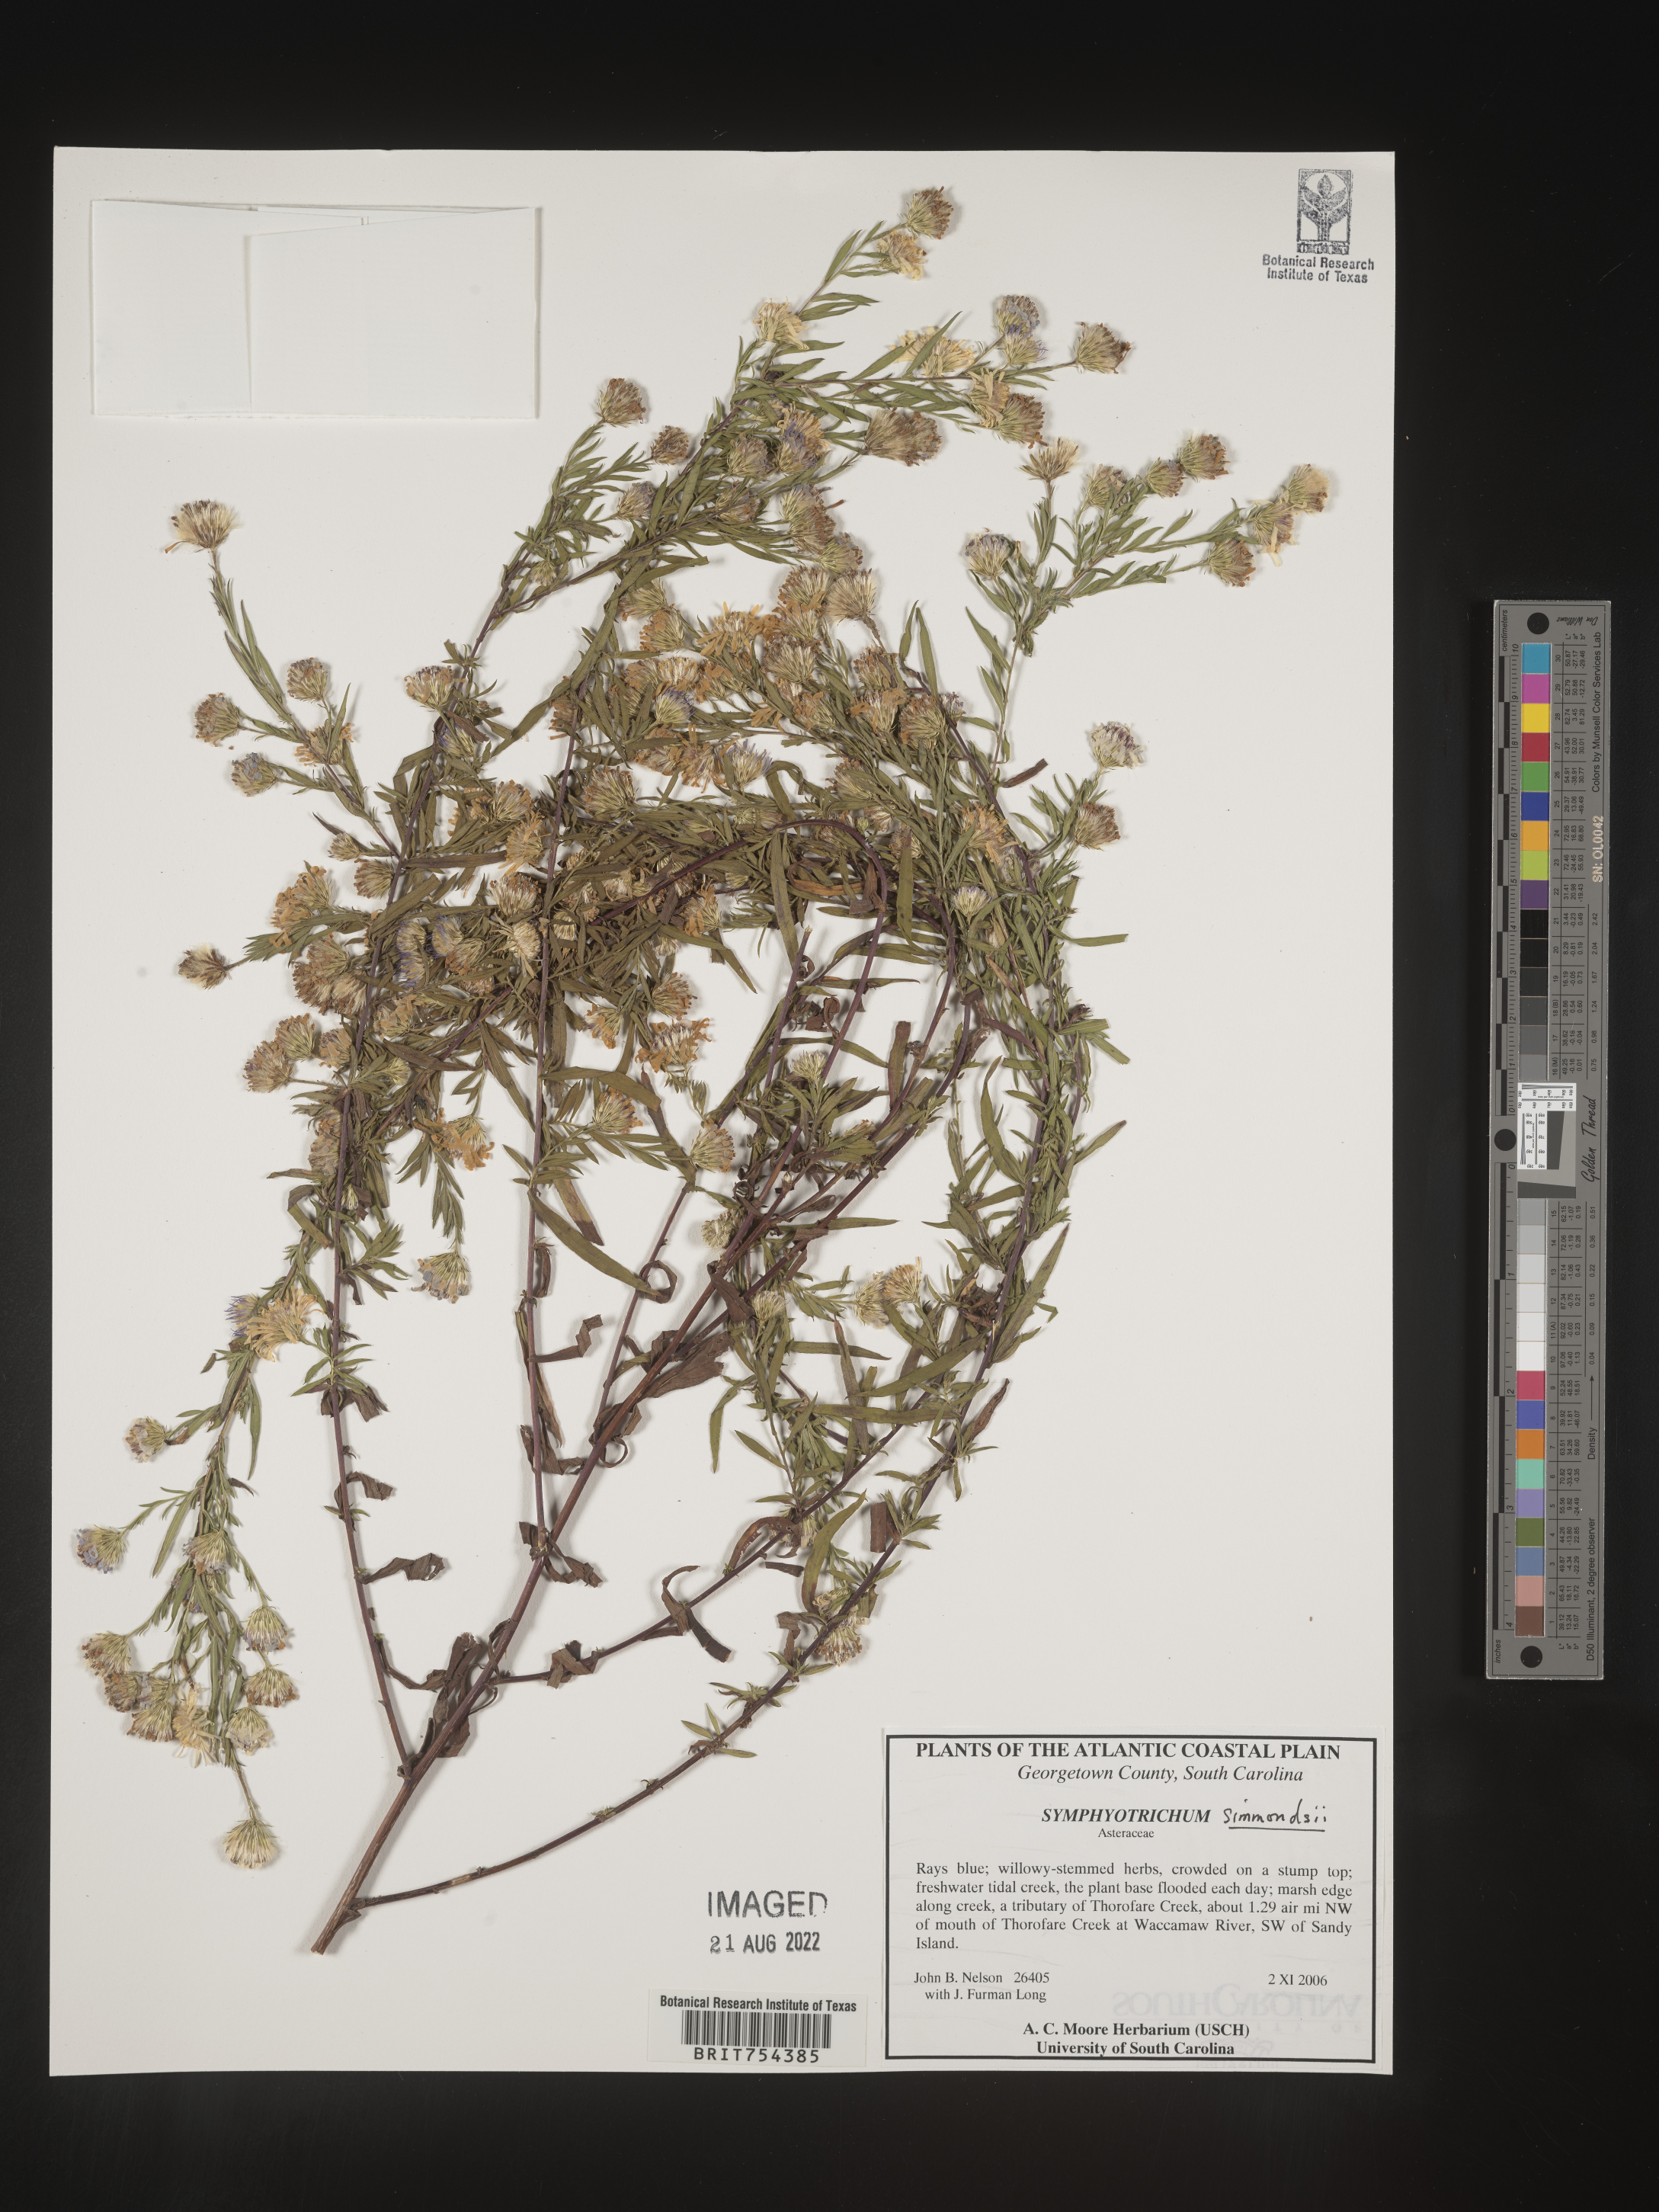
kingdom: Plantae
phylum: Tracheophyta
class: Magnoliopsida
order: Asterales
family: Asteraceae
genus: Symphyotrichum
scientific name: Symphyotrichum simmondsii
